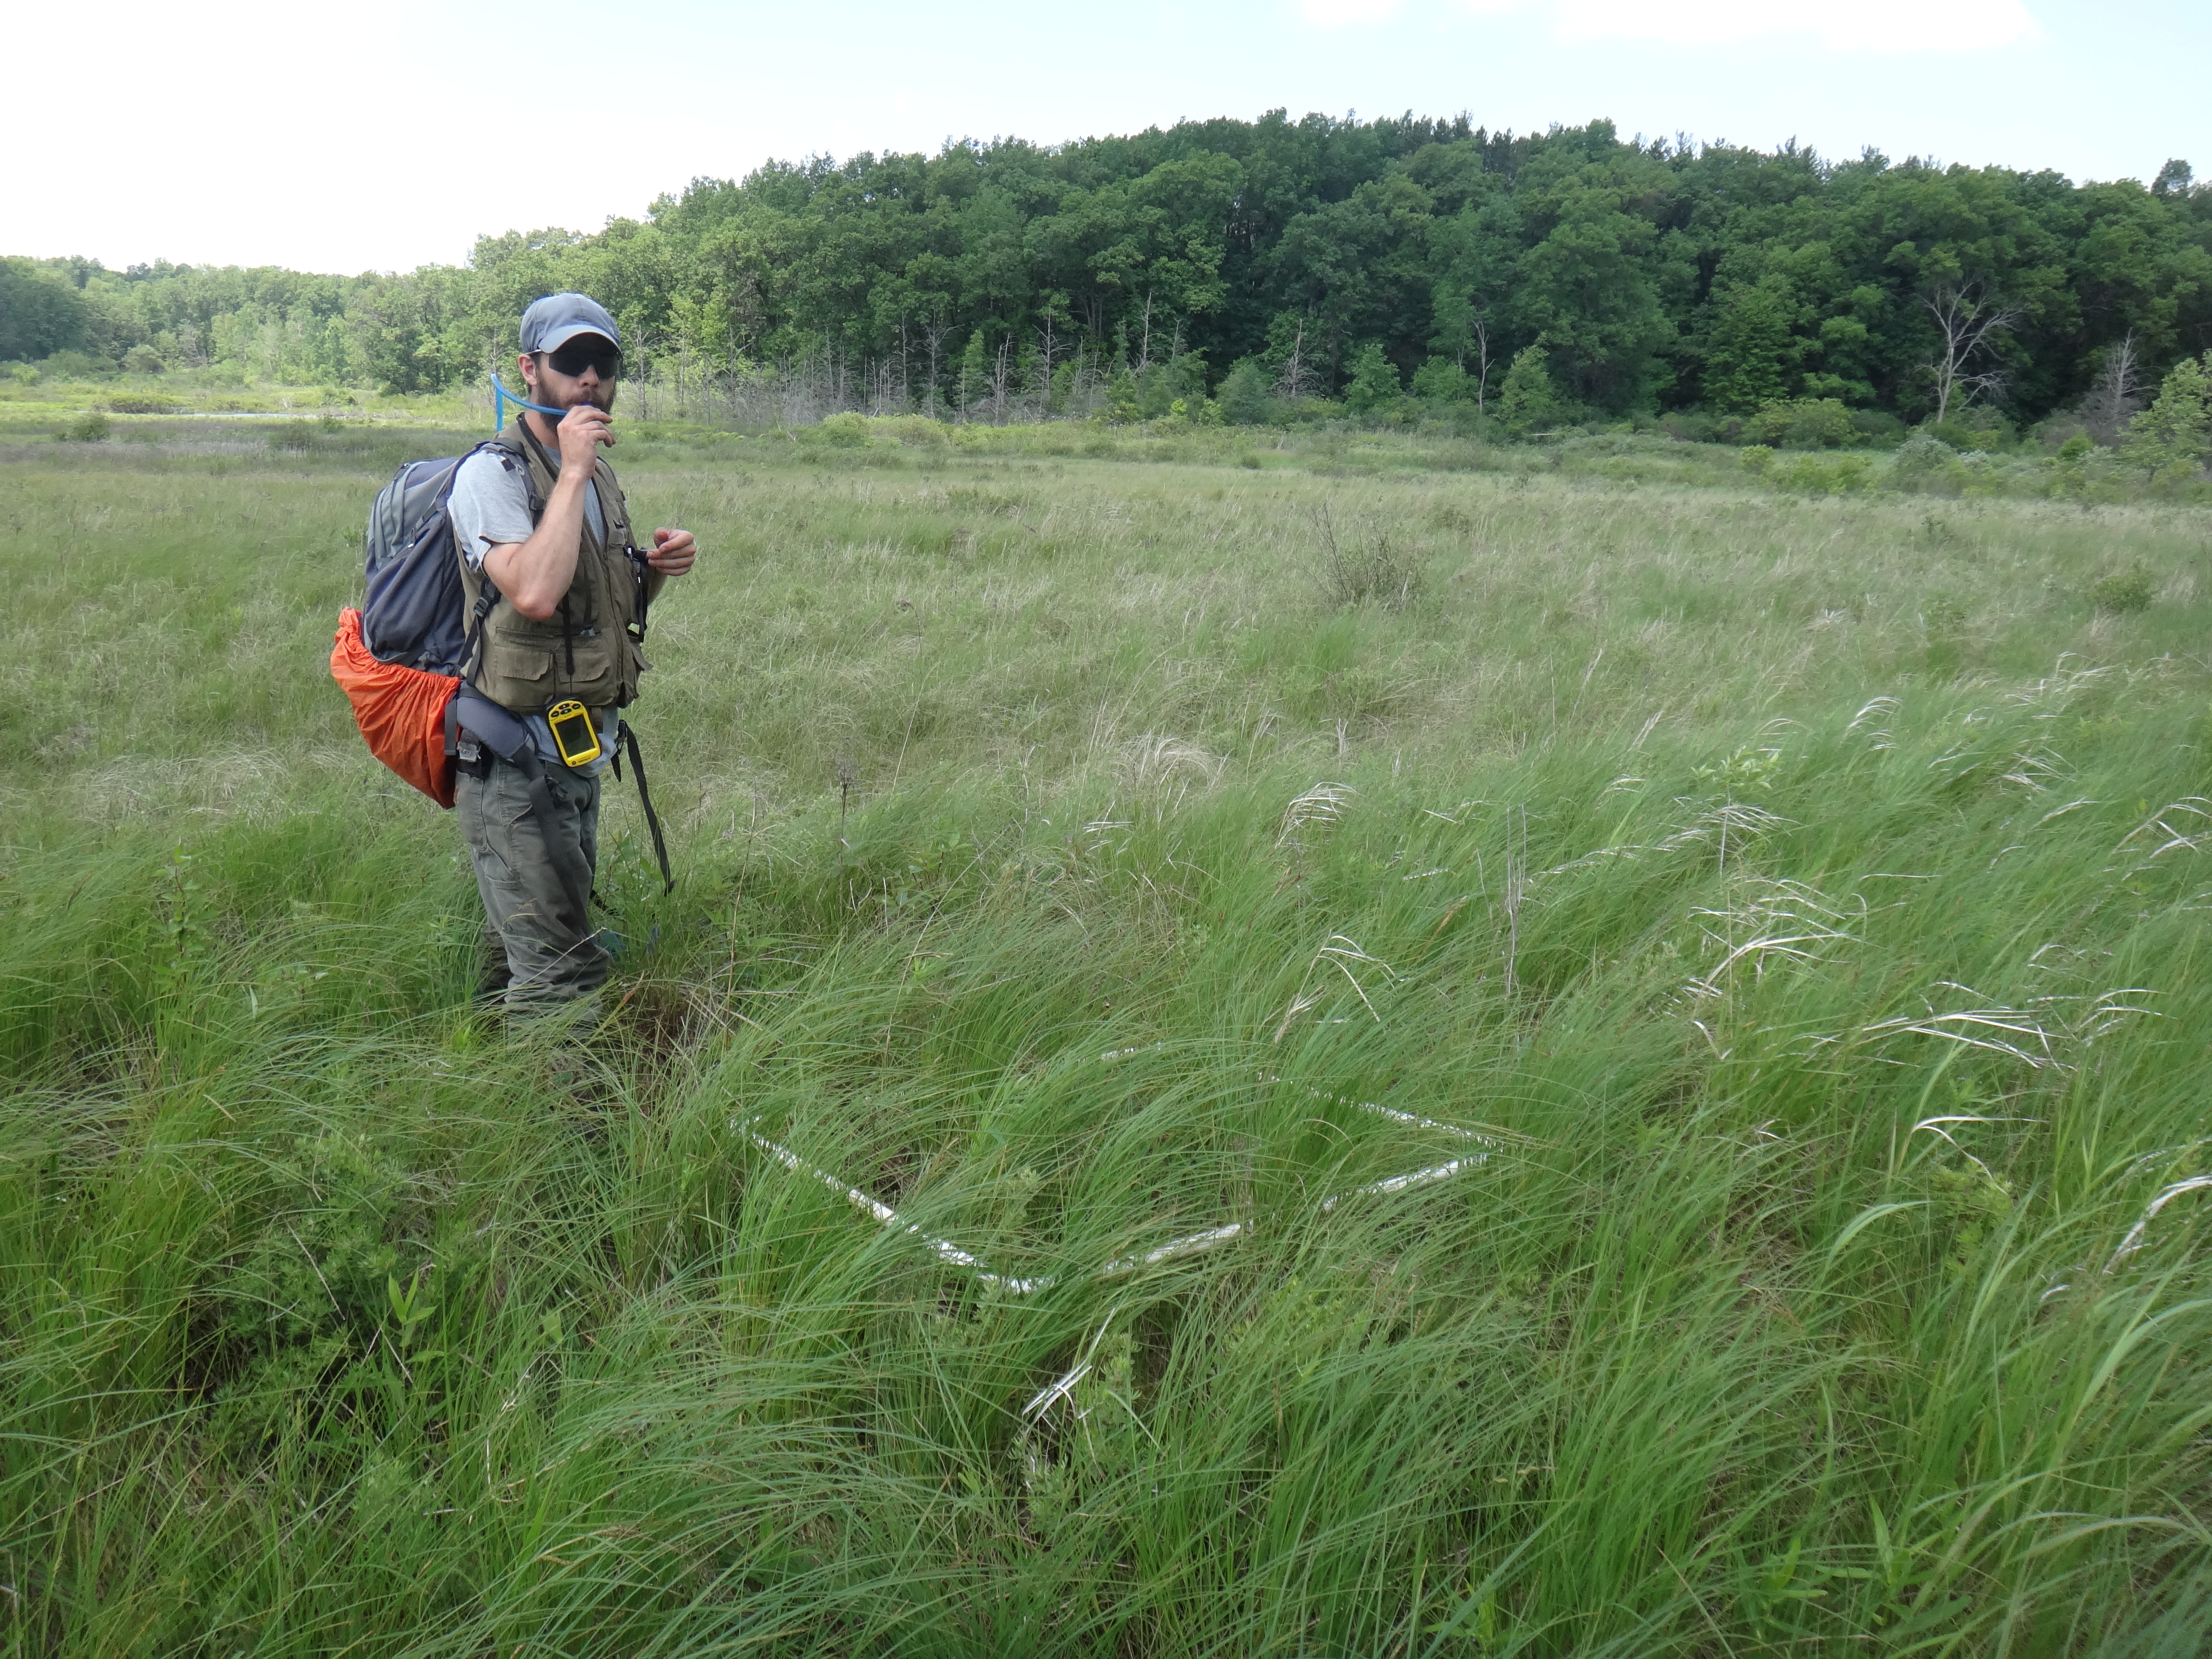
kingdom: Plantae
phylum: Tracheophyta
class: Magnoliopsida
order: Asterales
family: Asteraceae
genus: Cirsium
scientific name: Cirsium muticum
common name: Dunce-nettle
